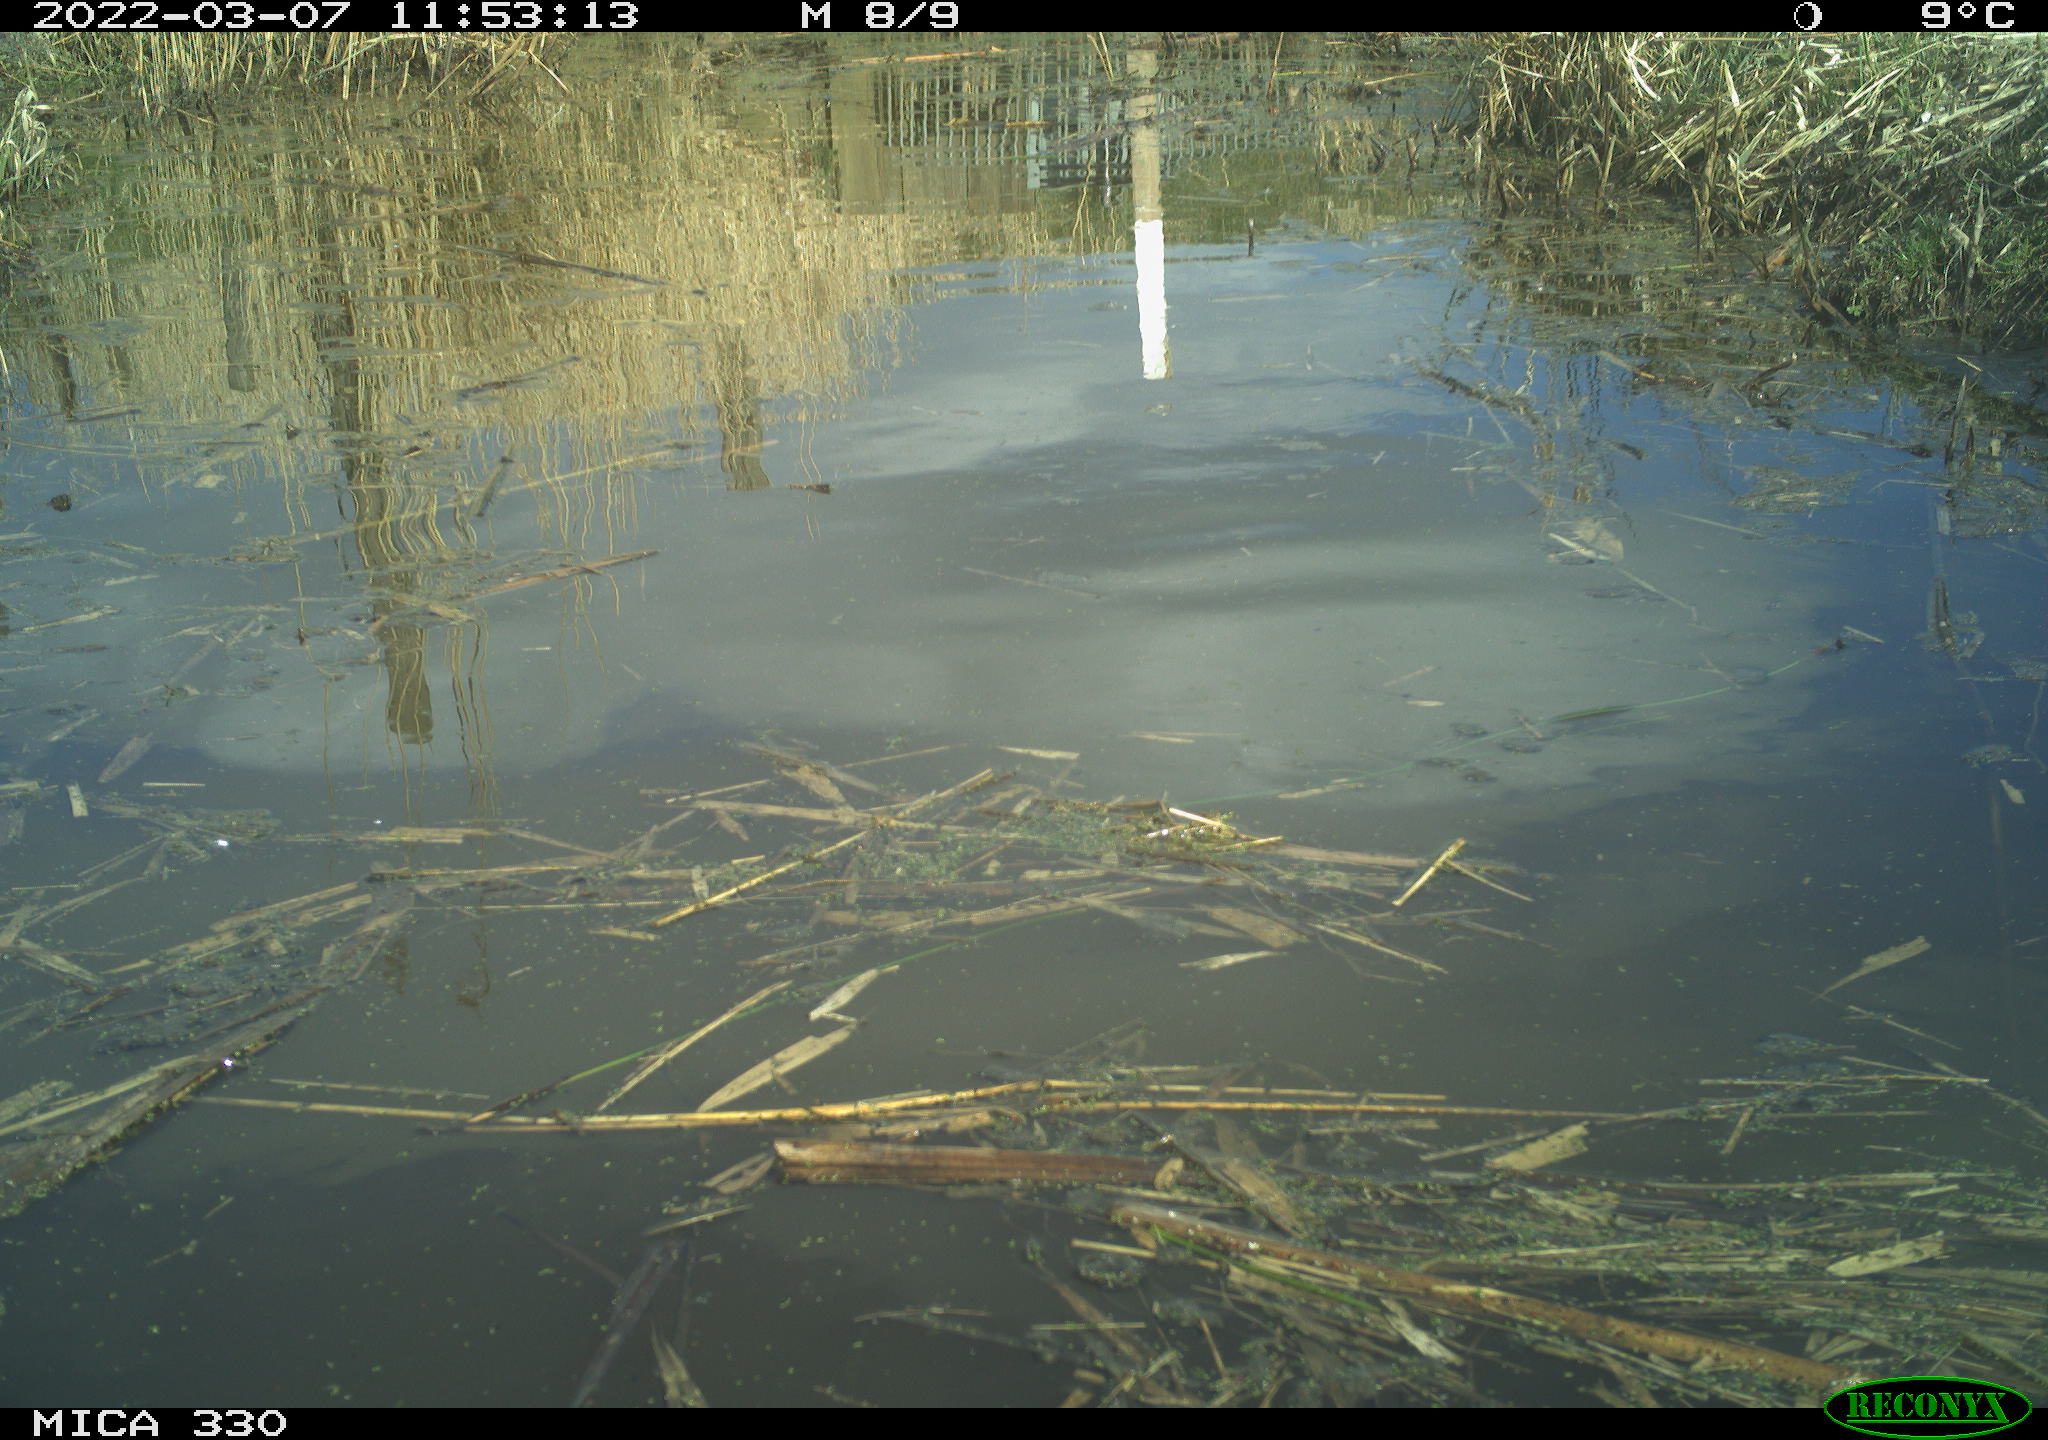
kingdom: Animalia
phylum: Chordata
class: Aves
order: Anseriformes
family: Anatidae
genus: Anas
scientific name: Anas platyrhynchos
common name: Mallard
